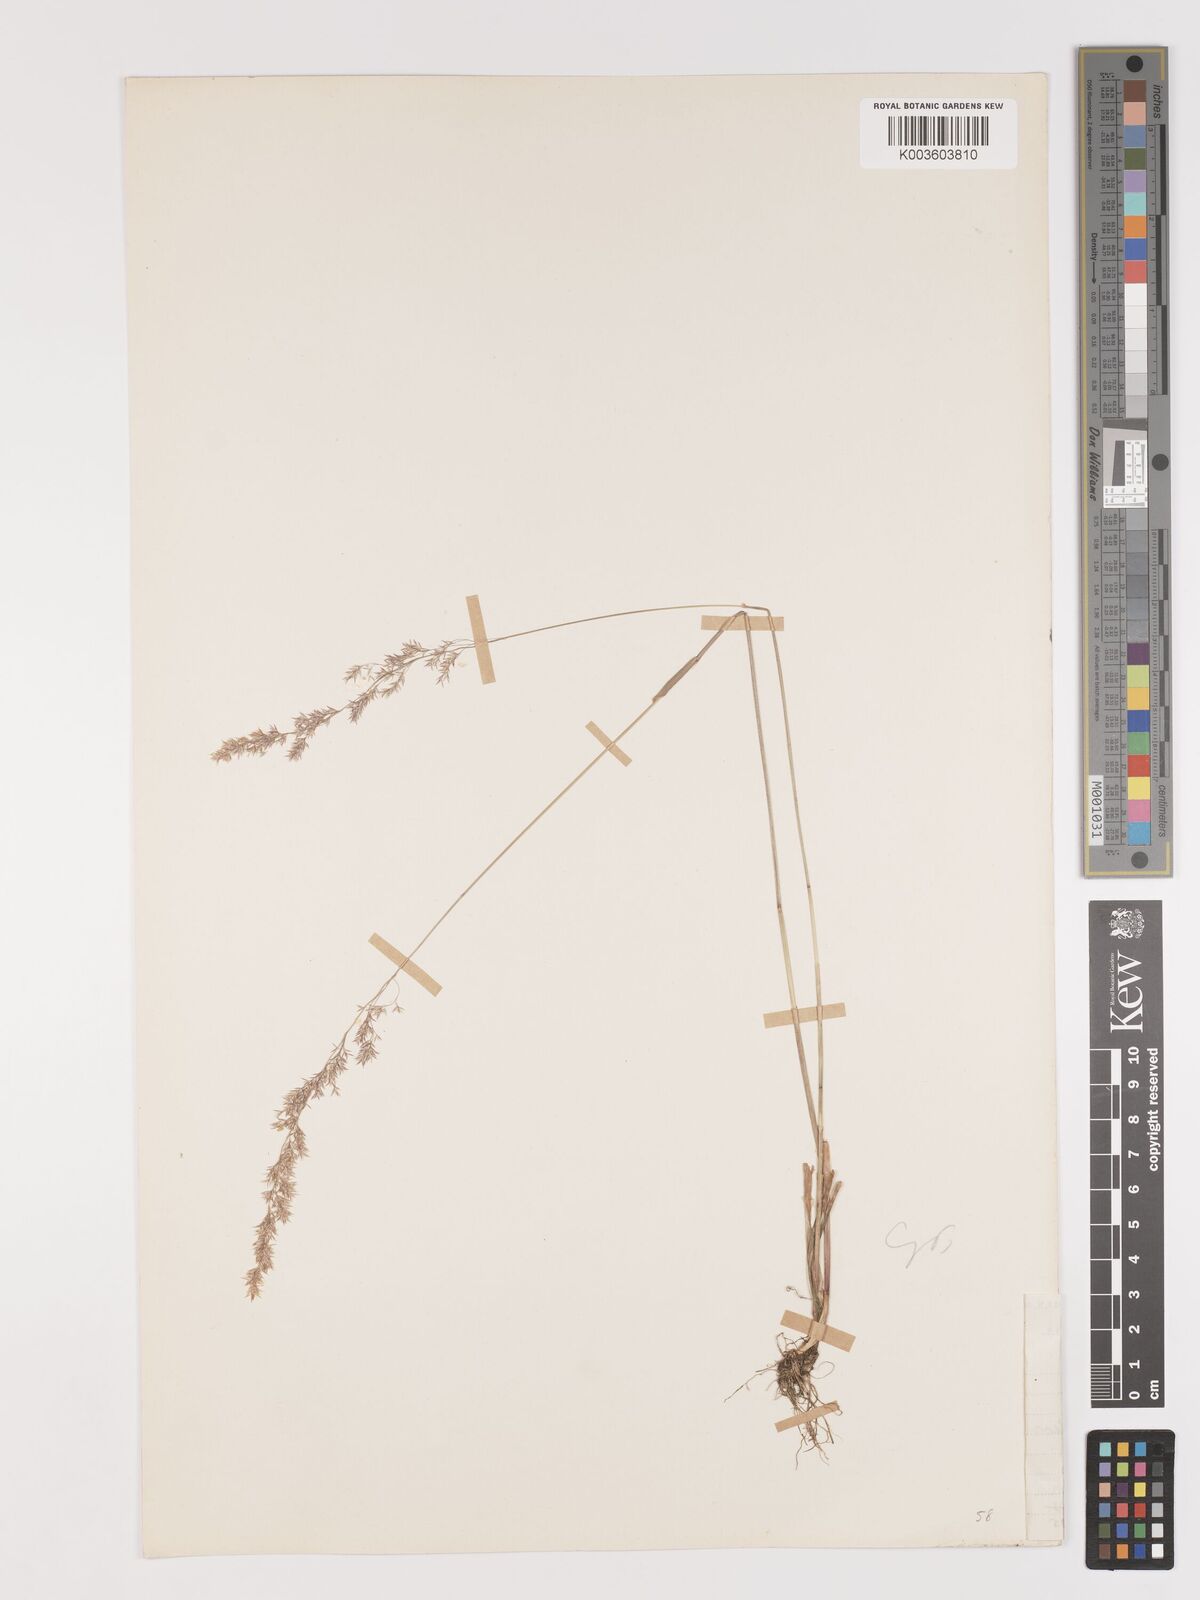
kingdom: Plantae
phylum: Tracheophyta
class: Liliopsida
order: Poales
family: Poaceae
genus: Lachnagrostis
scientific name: Lachnagrostis lachnantha
